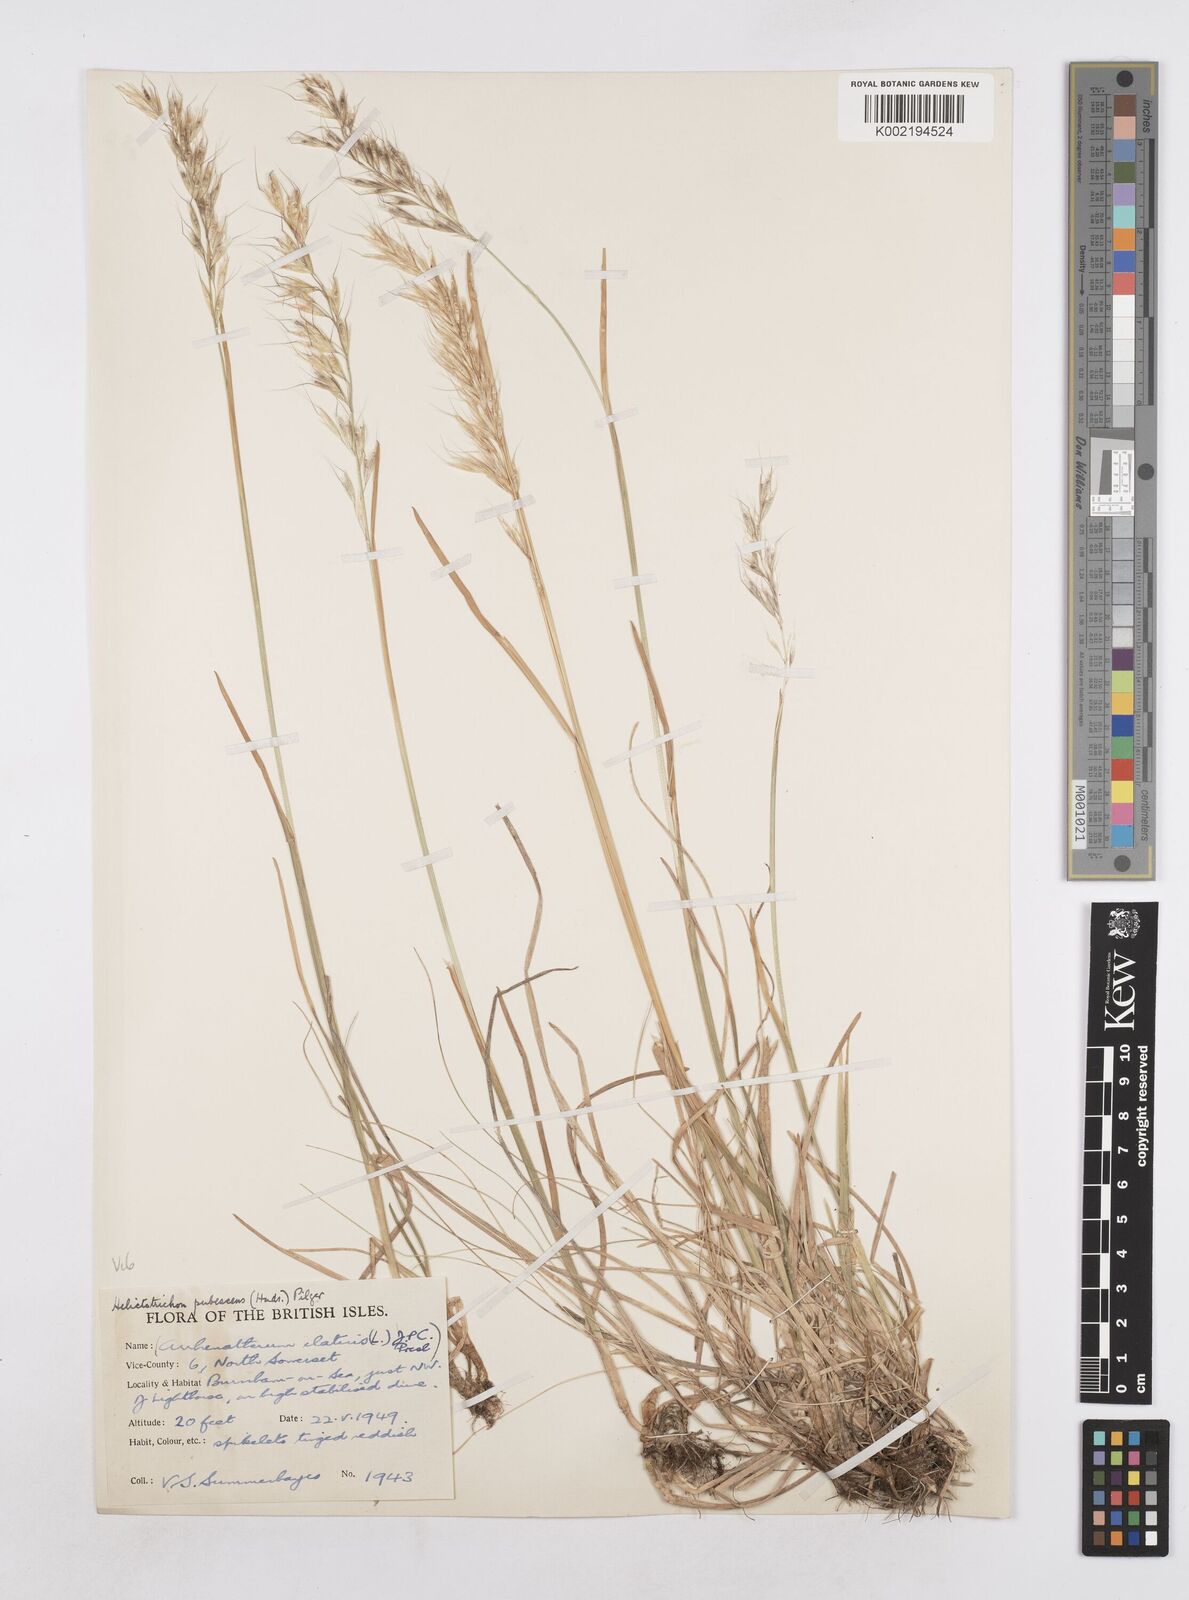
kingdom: Plantae
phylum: Tracheophyta
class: Liliopsida
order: Poales
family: Poaceae
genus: Avenula
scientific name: Avenula pubescens
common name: Downy alpine oatgrass
